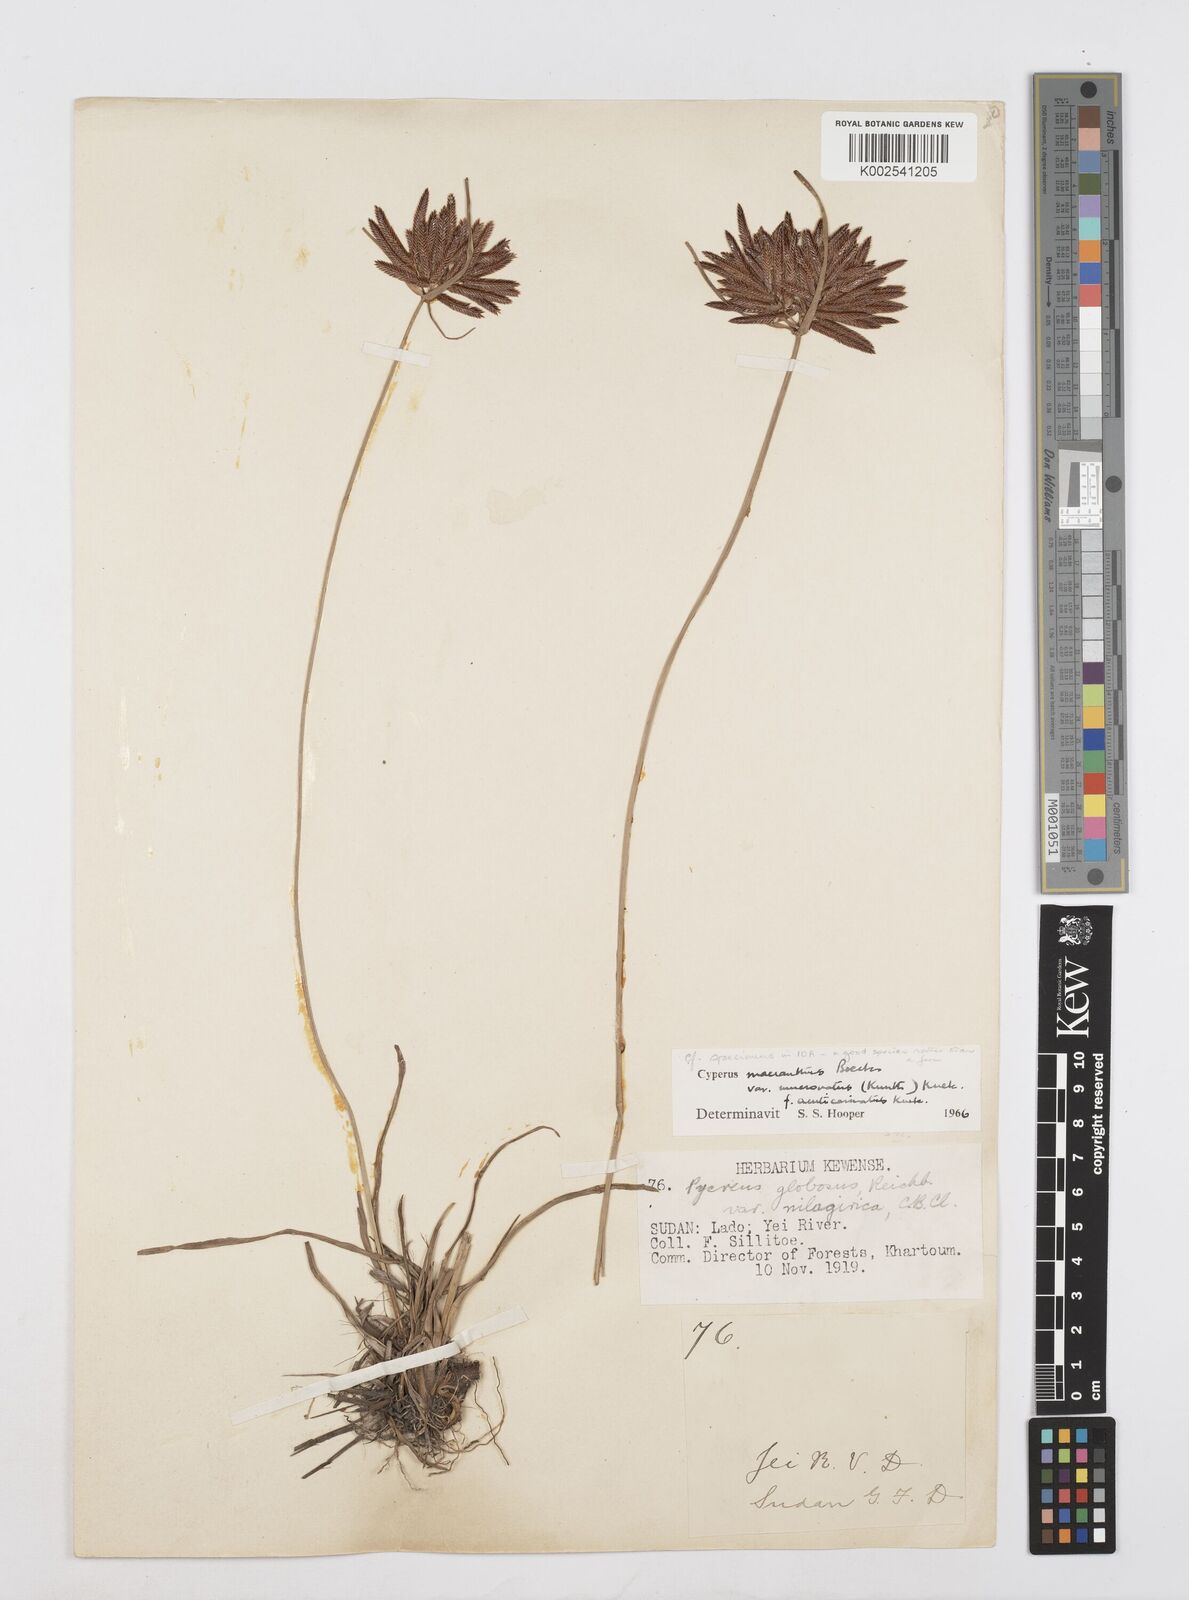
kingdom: Plantae
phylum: Tracheophyta
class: Liliopsida
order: Poales
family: Cyperaceae
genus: Cyperus
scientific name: Cyperus acuticarinatus
